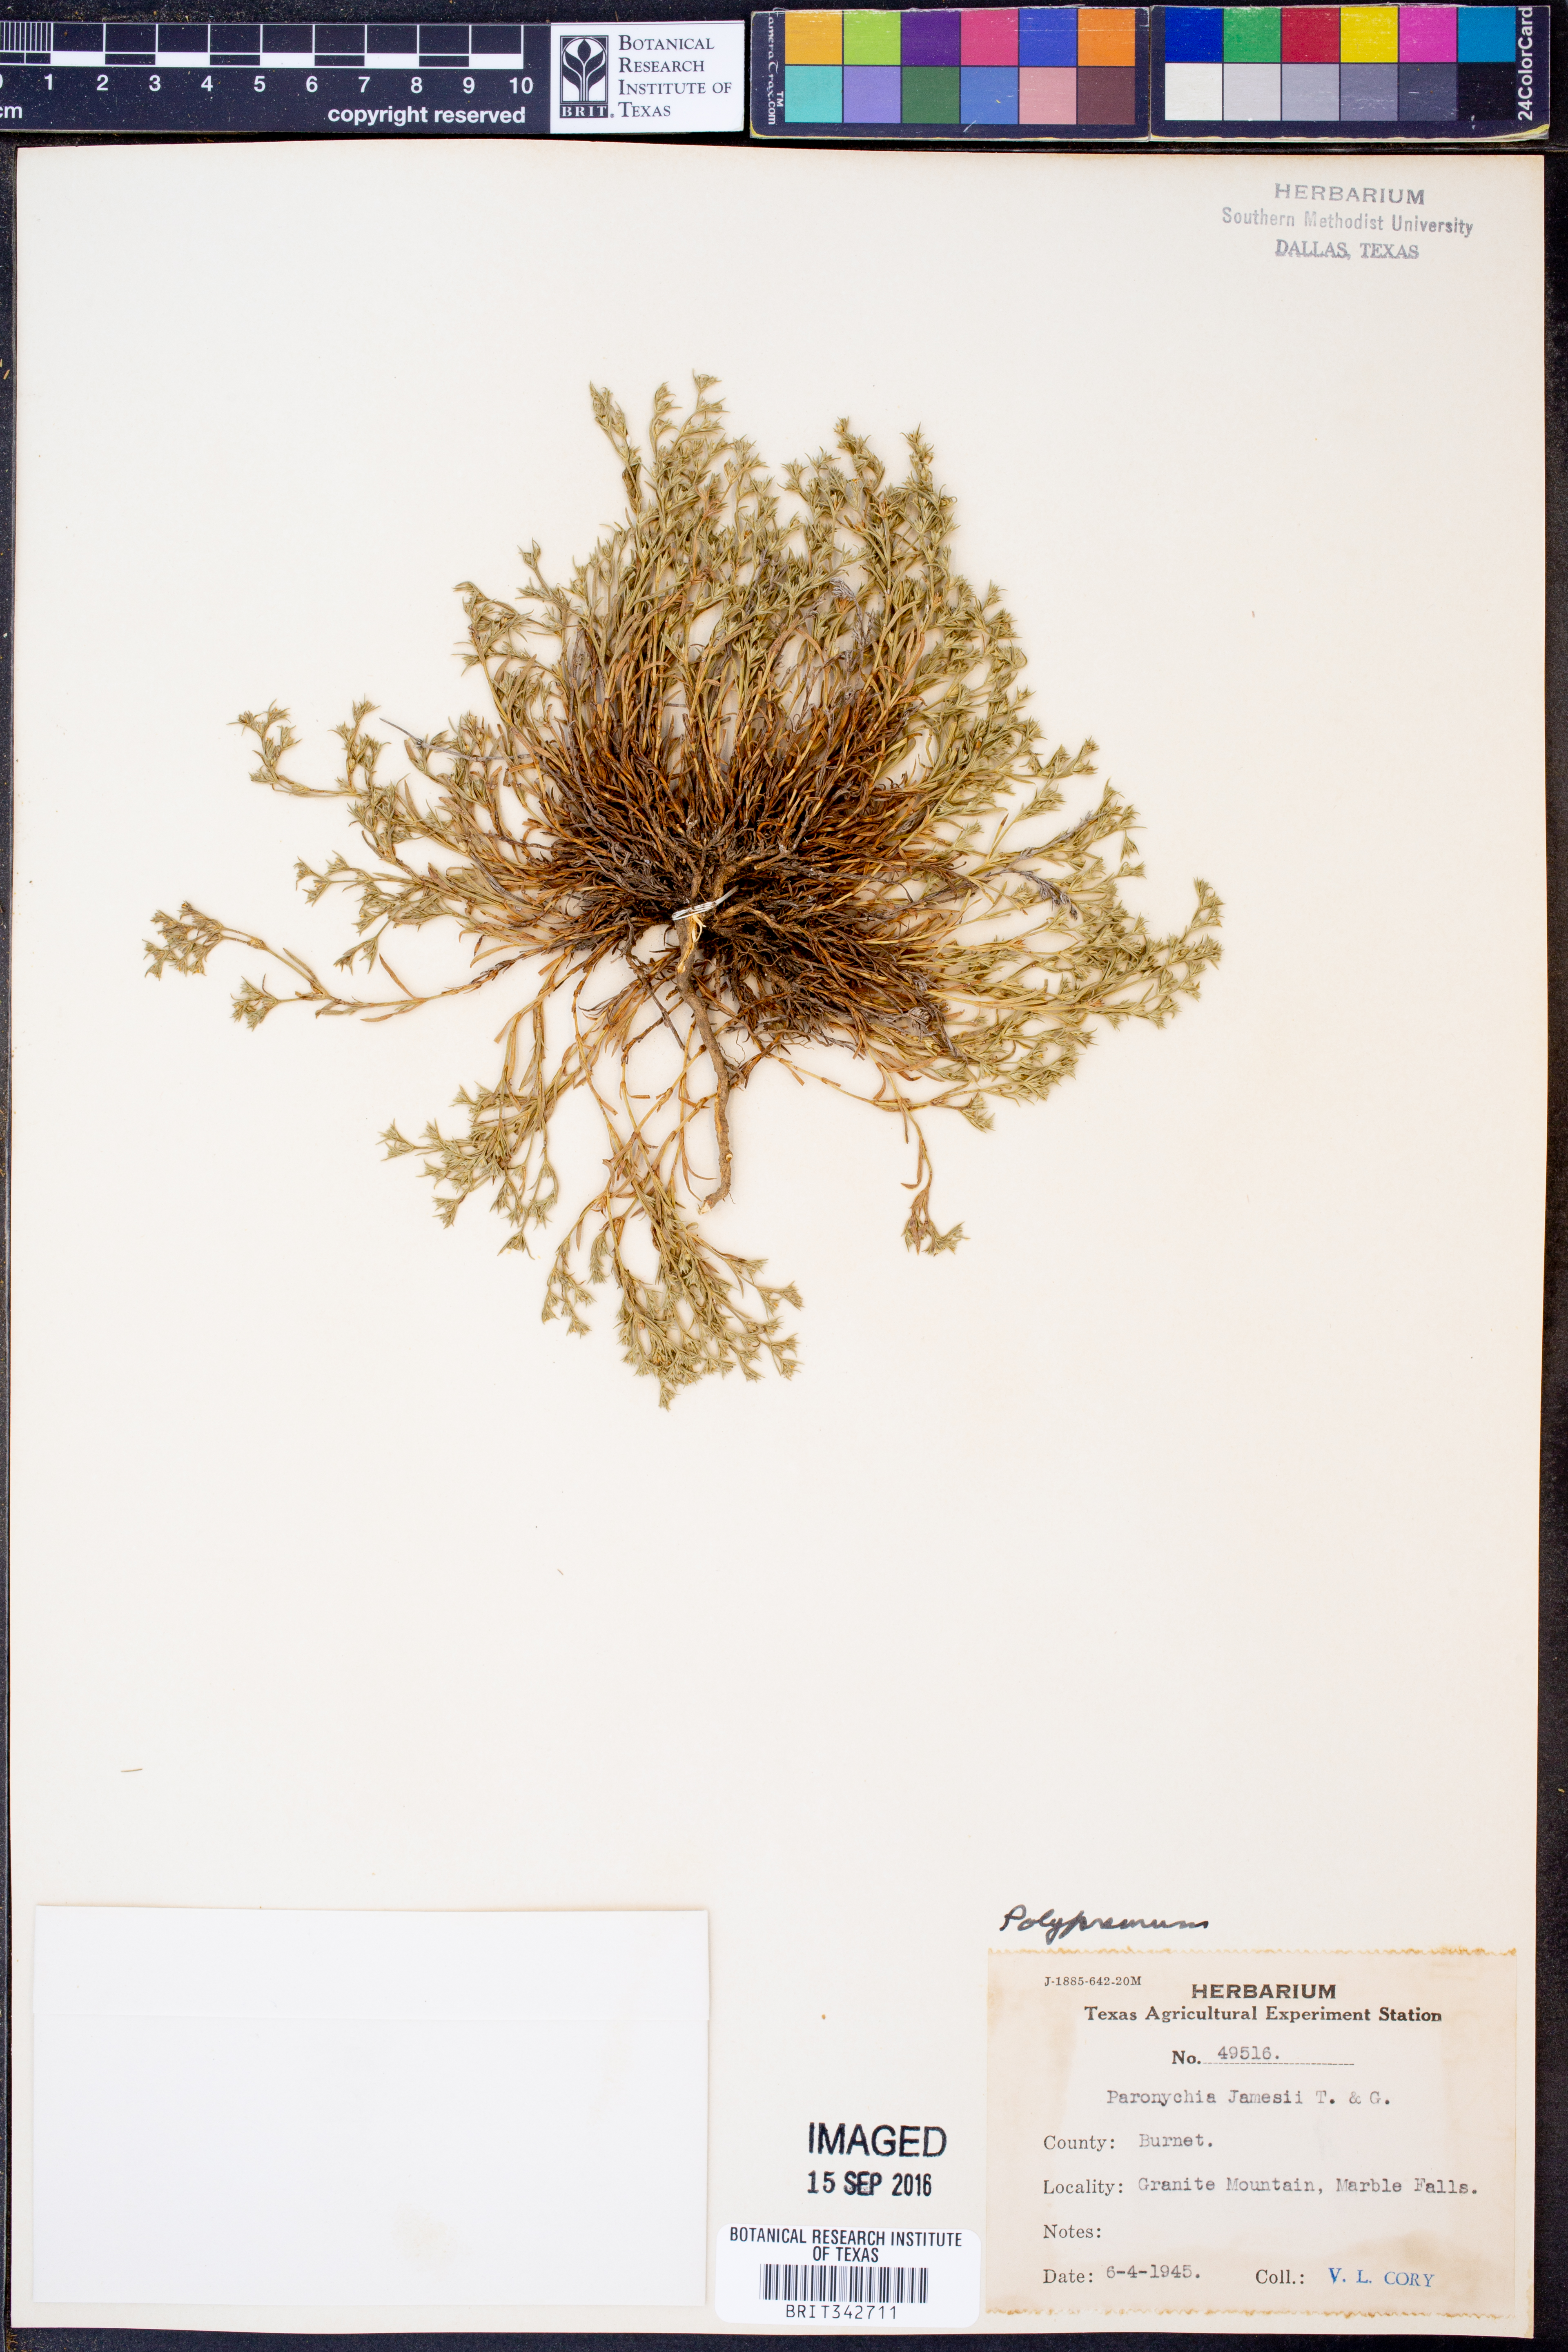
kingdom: Plantae
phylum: Tracheophyta
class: Magnoliopsida
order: Lamiales
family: Tetrachondraceae
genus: Polypremum
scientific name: Polypremum
